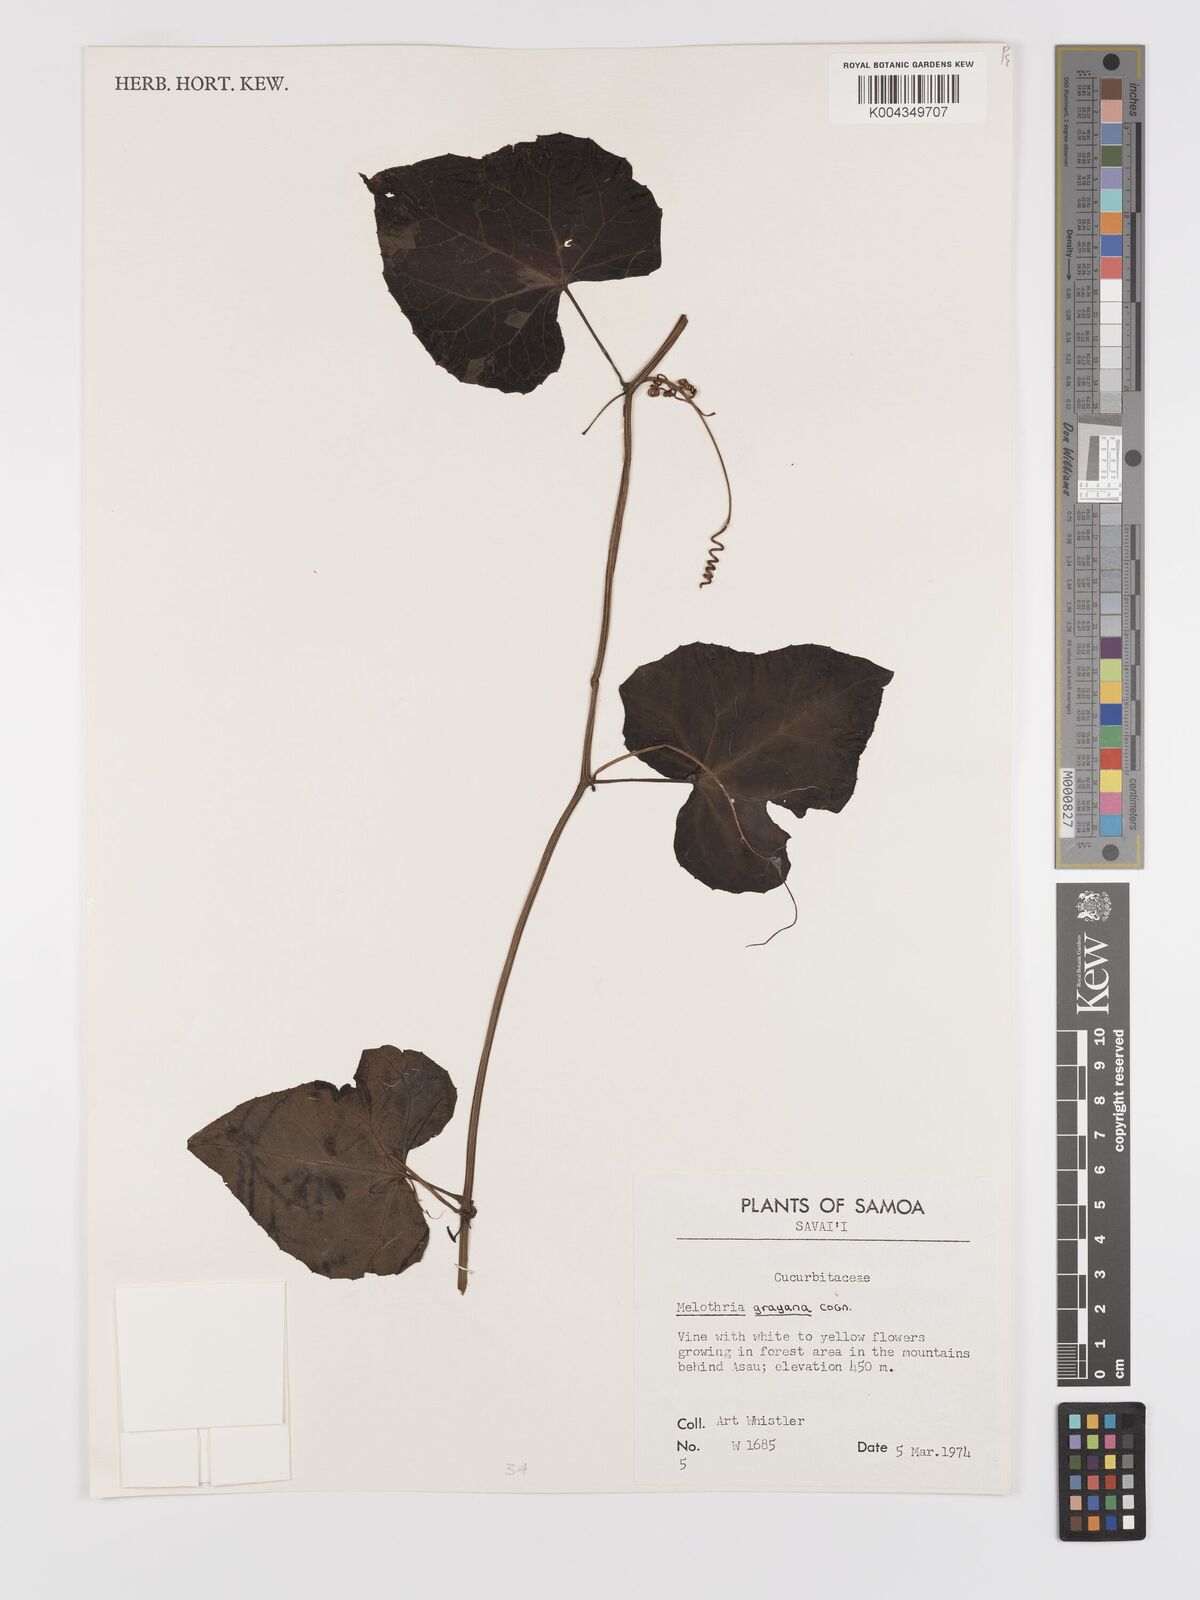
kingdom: Plantae
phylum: Tracheophyta
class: Magnoliopsida
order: Cucurbitales
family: Cucurbitaceae
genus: Zehneria
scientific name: Zehneria
